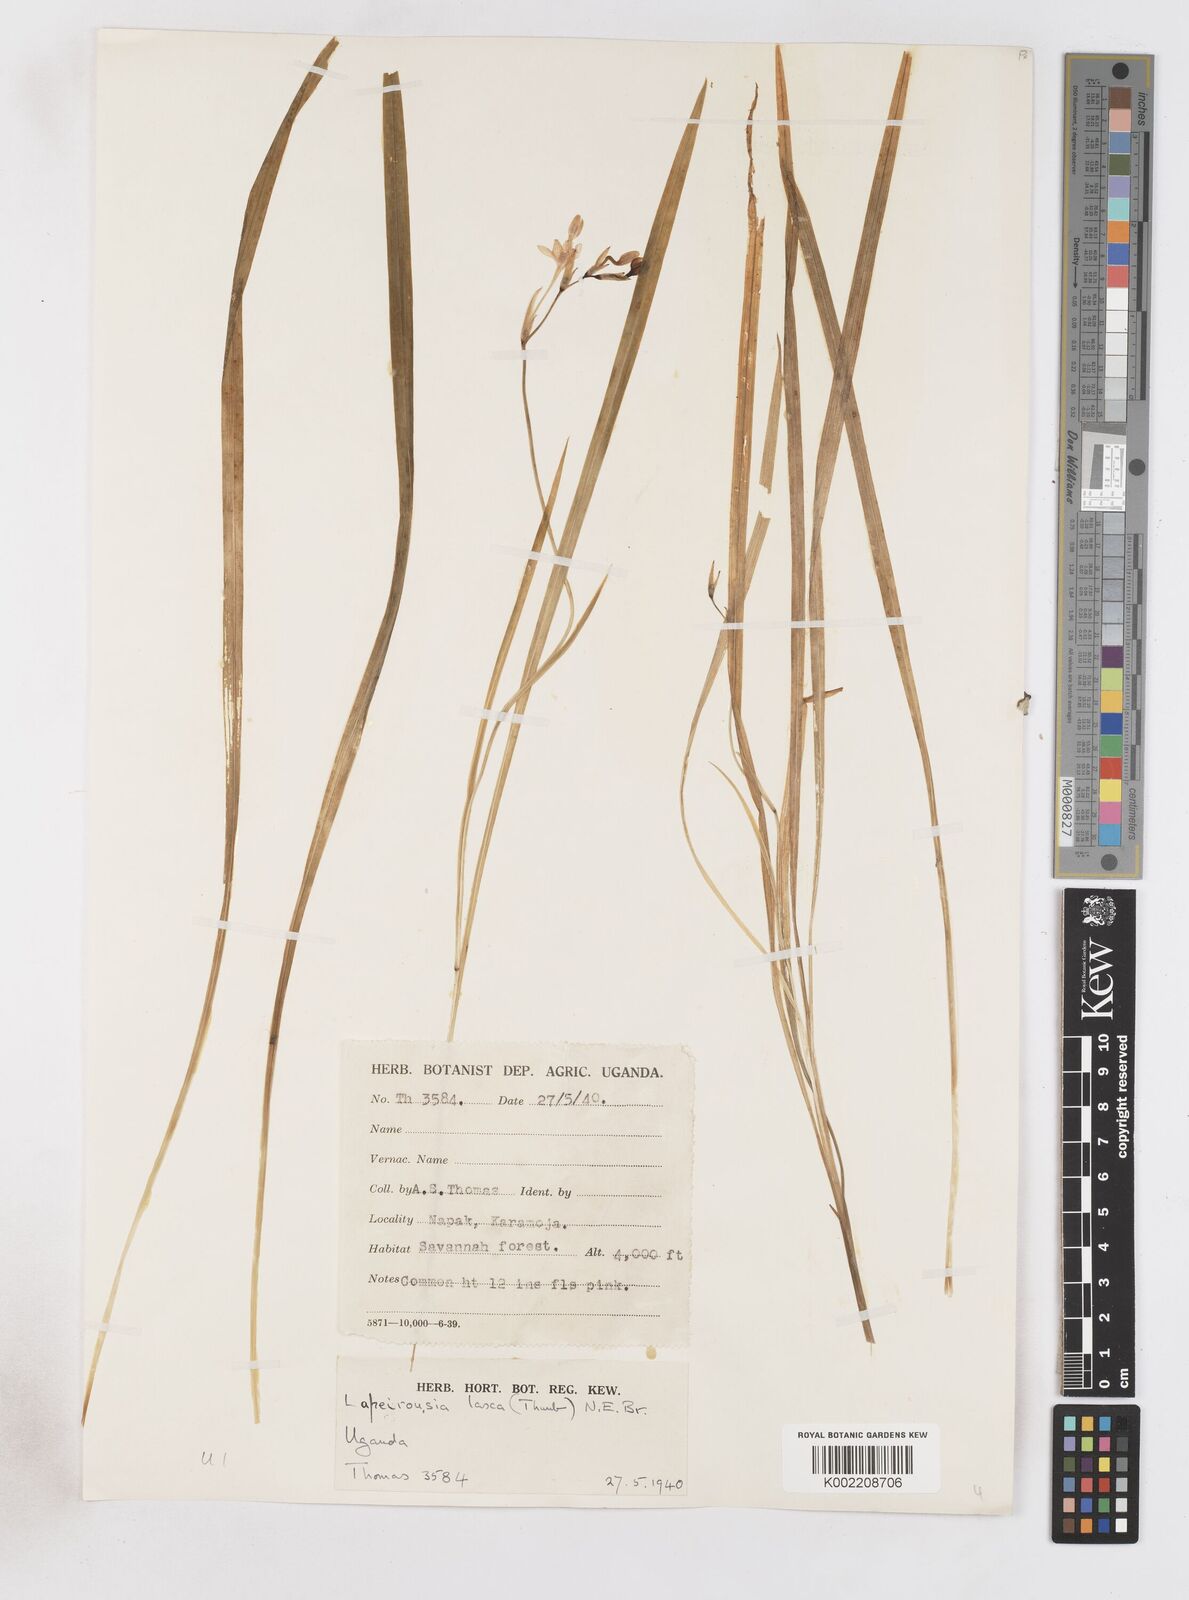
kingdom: Plantae
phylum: Tracheophyta
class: Liliopsida
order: Asparagales
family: Iridaceae
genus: Freesia
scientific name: Freesia laxa
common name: False freesia
